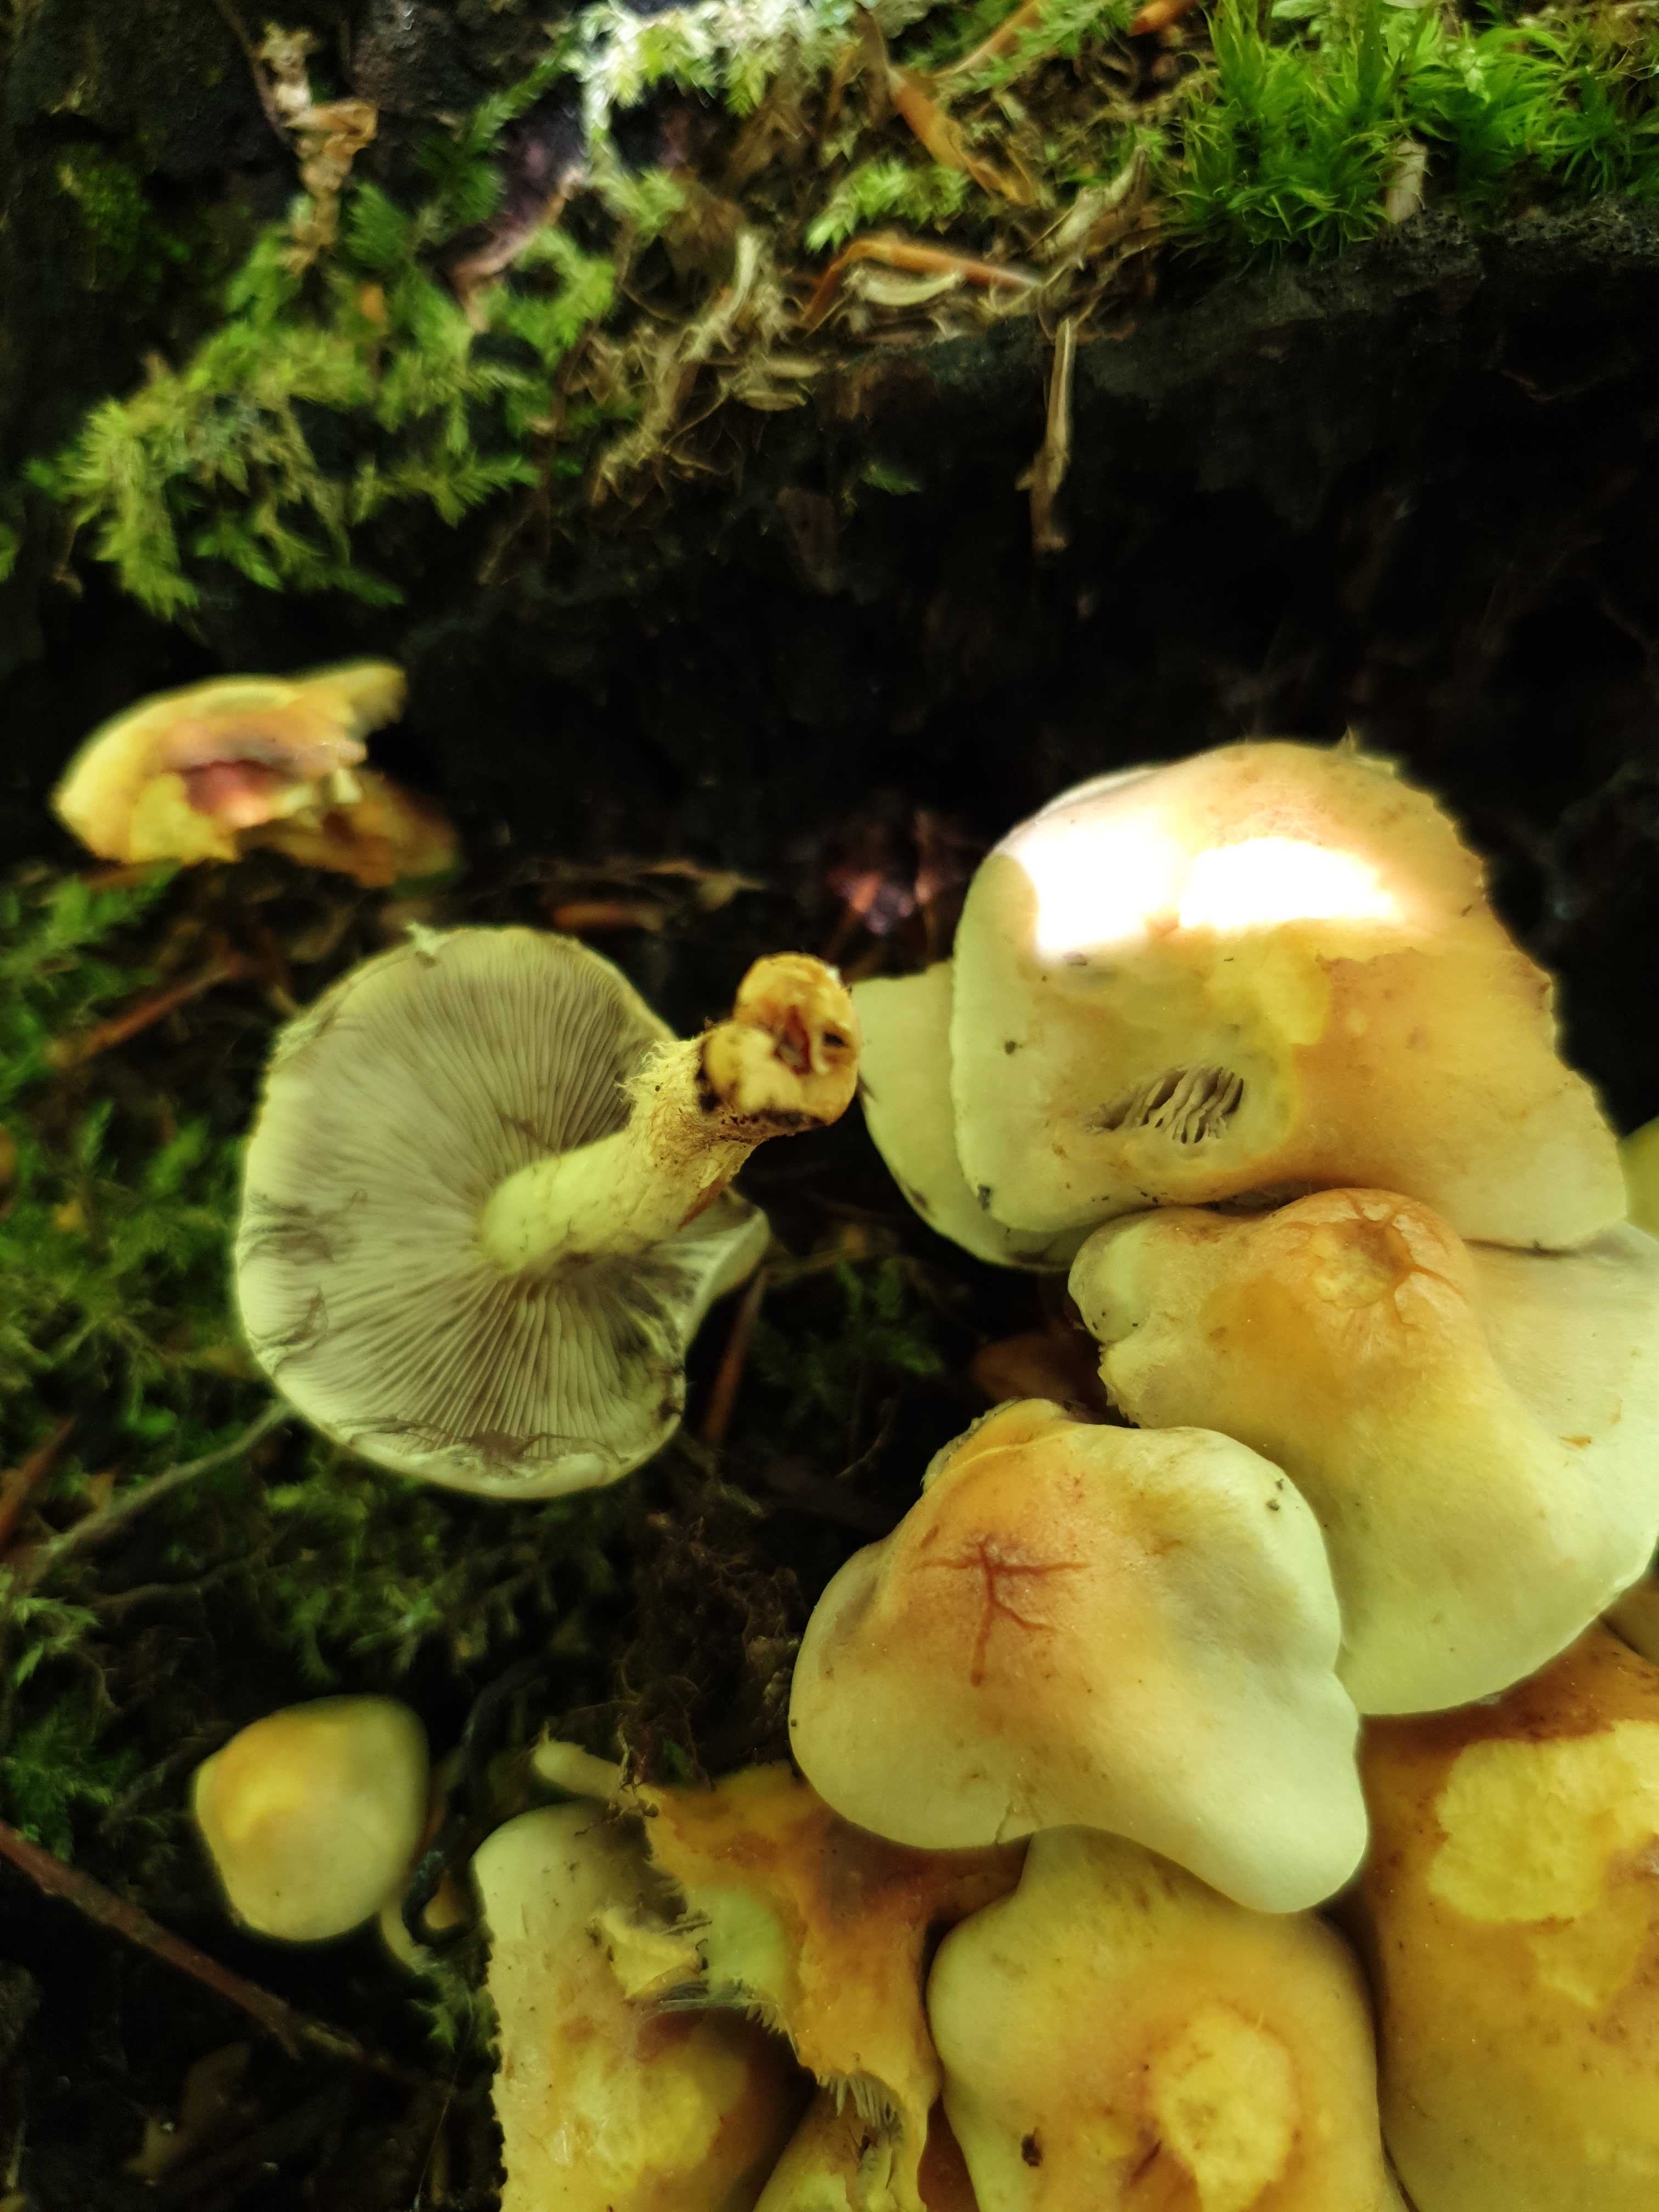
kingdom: Fungi
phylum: Basidiomycota
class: Agaricomycetes
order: Agaricales
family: Strophariaceae
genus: Hypholoma
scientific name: Hypholoma fasciculare
